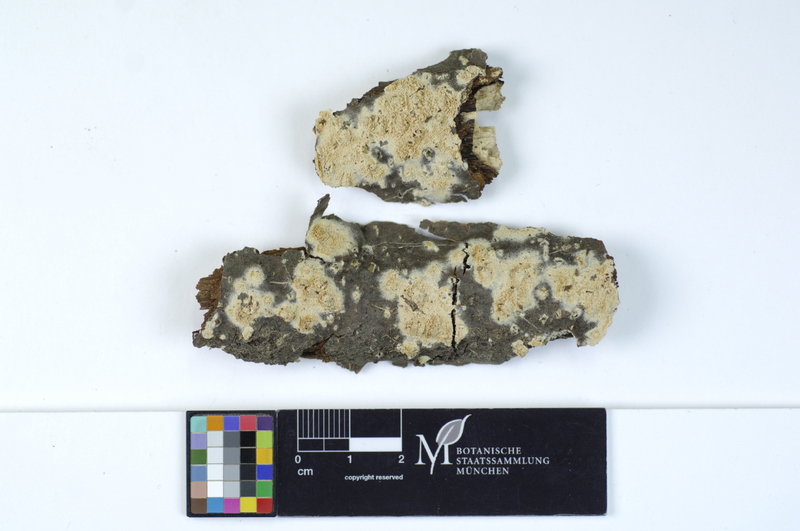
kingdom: Plantae
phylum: Tracheophyta
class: Magnoliopsida
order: Lamiales
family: Oleaceae
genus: Fraxinus
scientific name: Fraxinus
